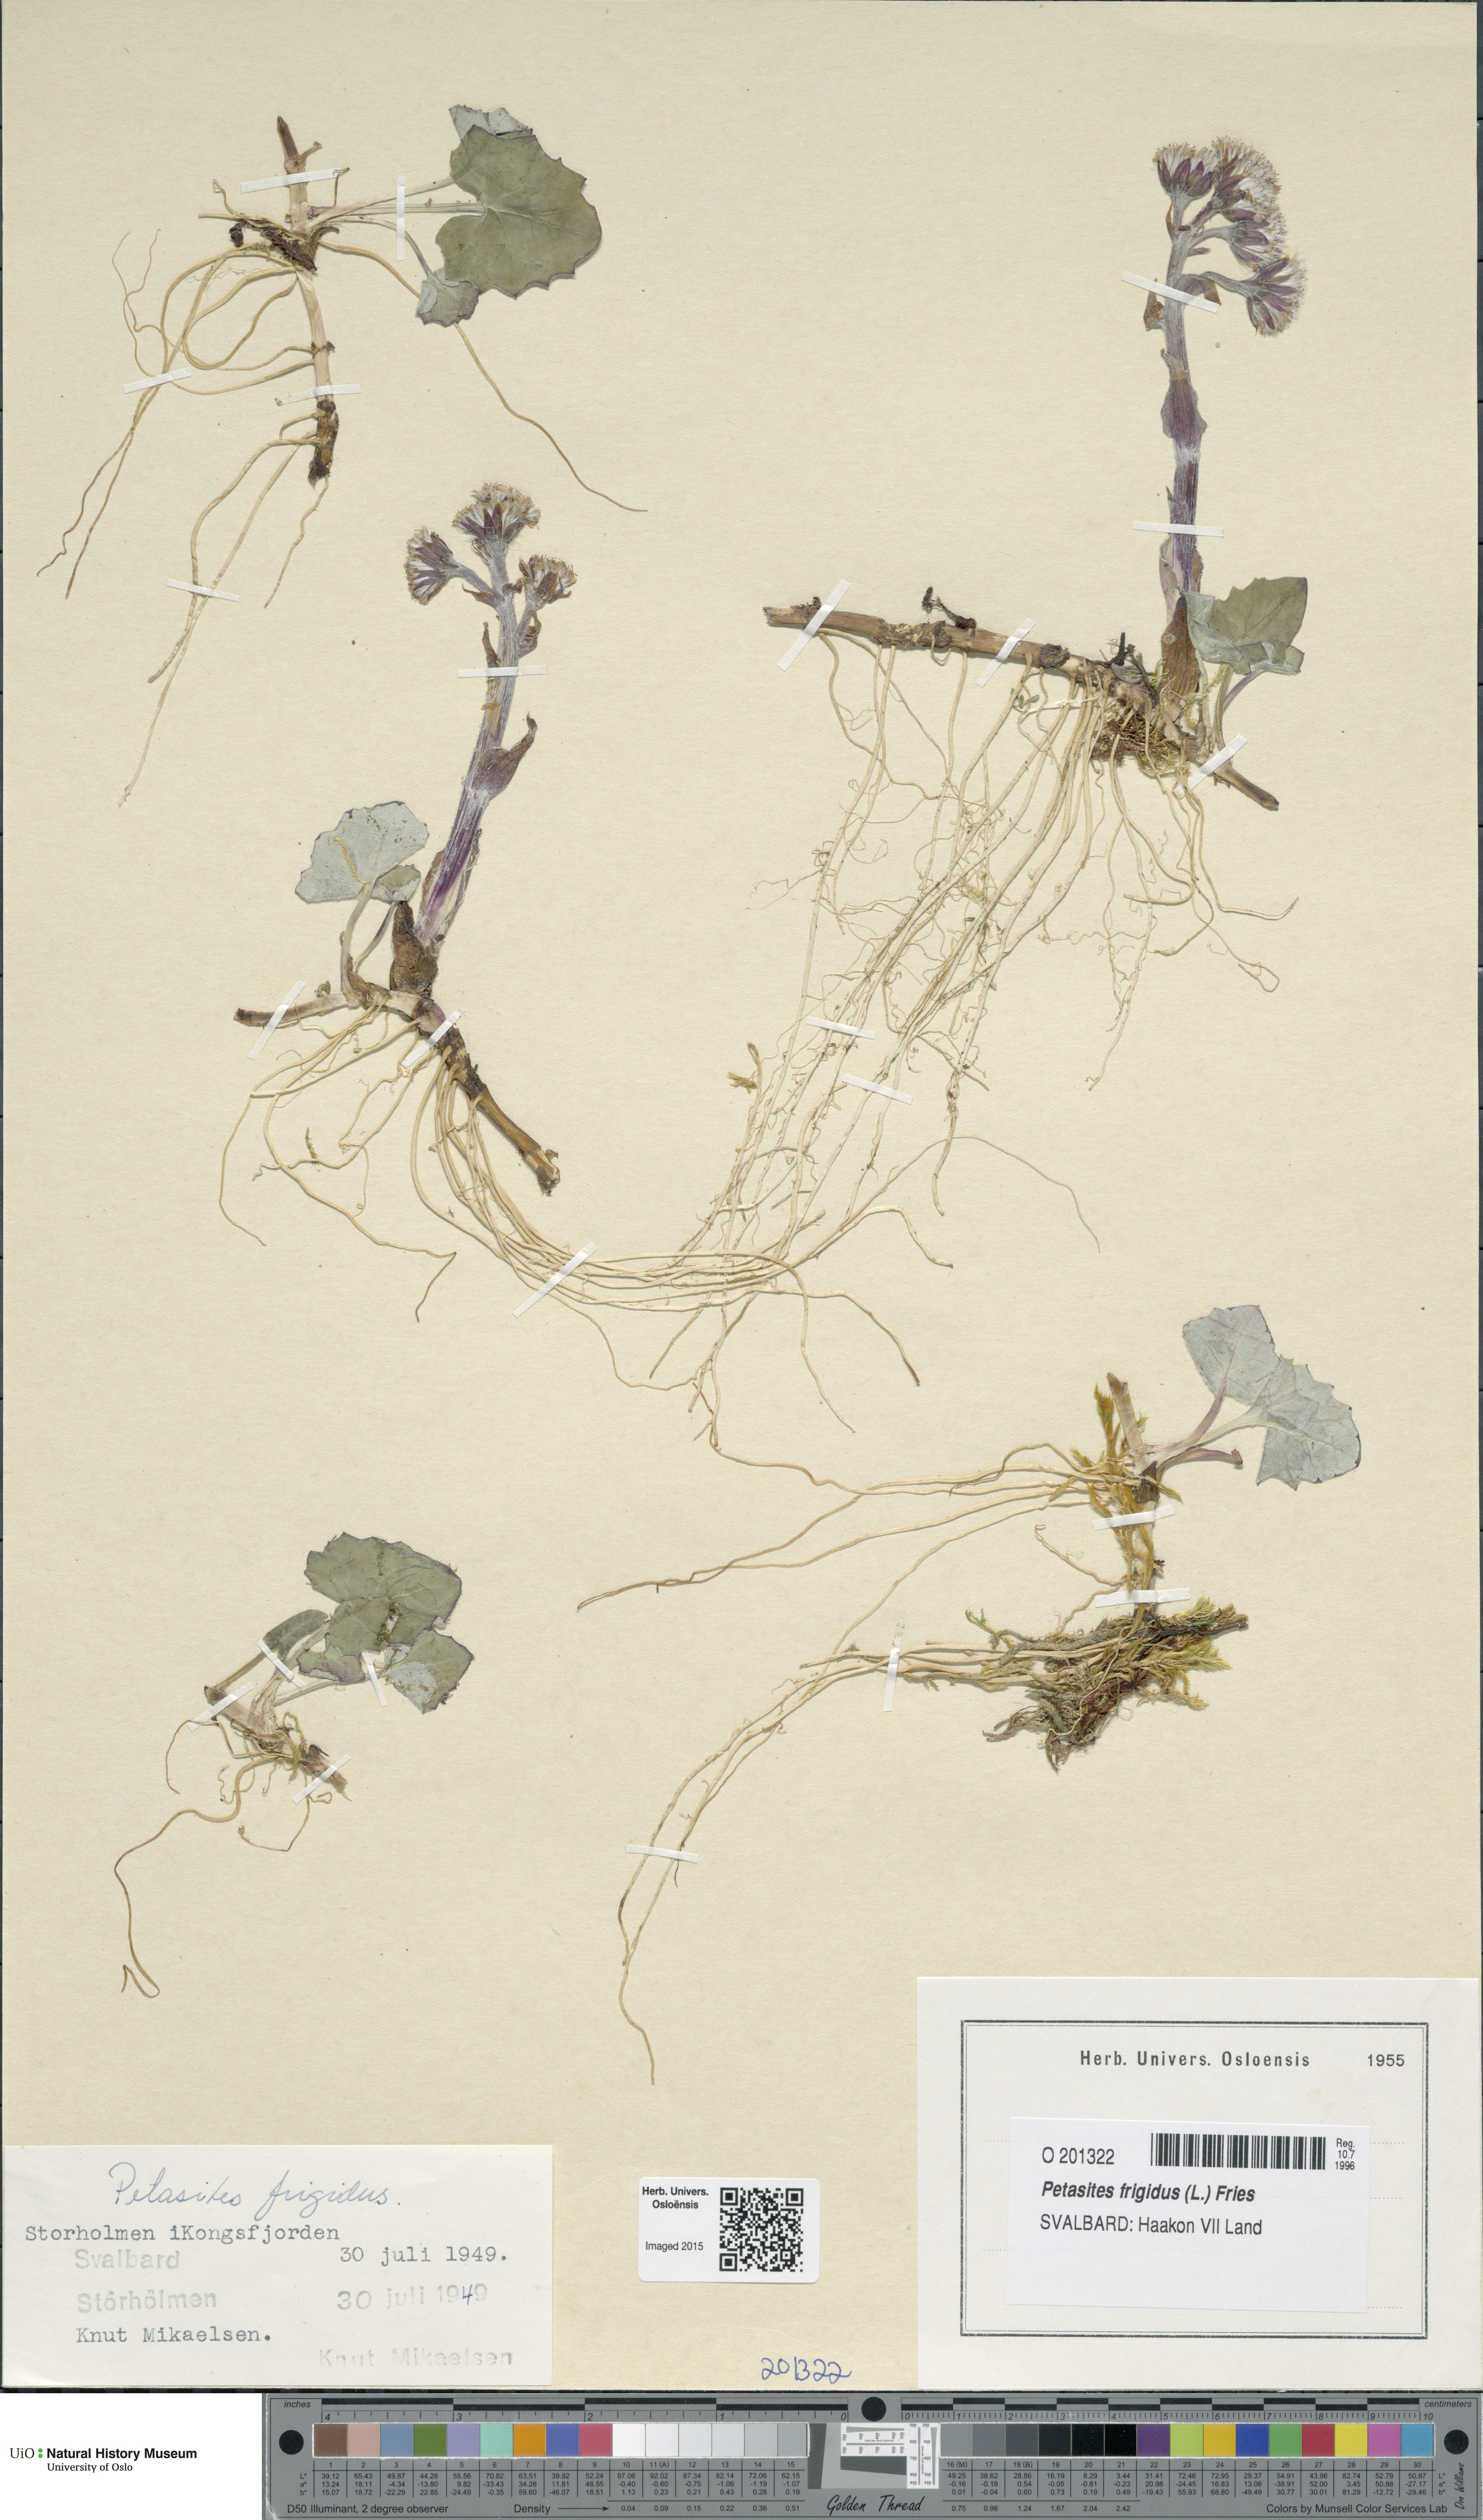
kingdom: Plantae
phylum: Tracheophyta
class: Magnoliopsida
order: Asterales
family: Asteraceae
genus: Petasites
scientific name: Petasites frigidus
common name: Arctic butterbur
